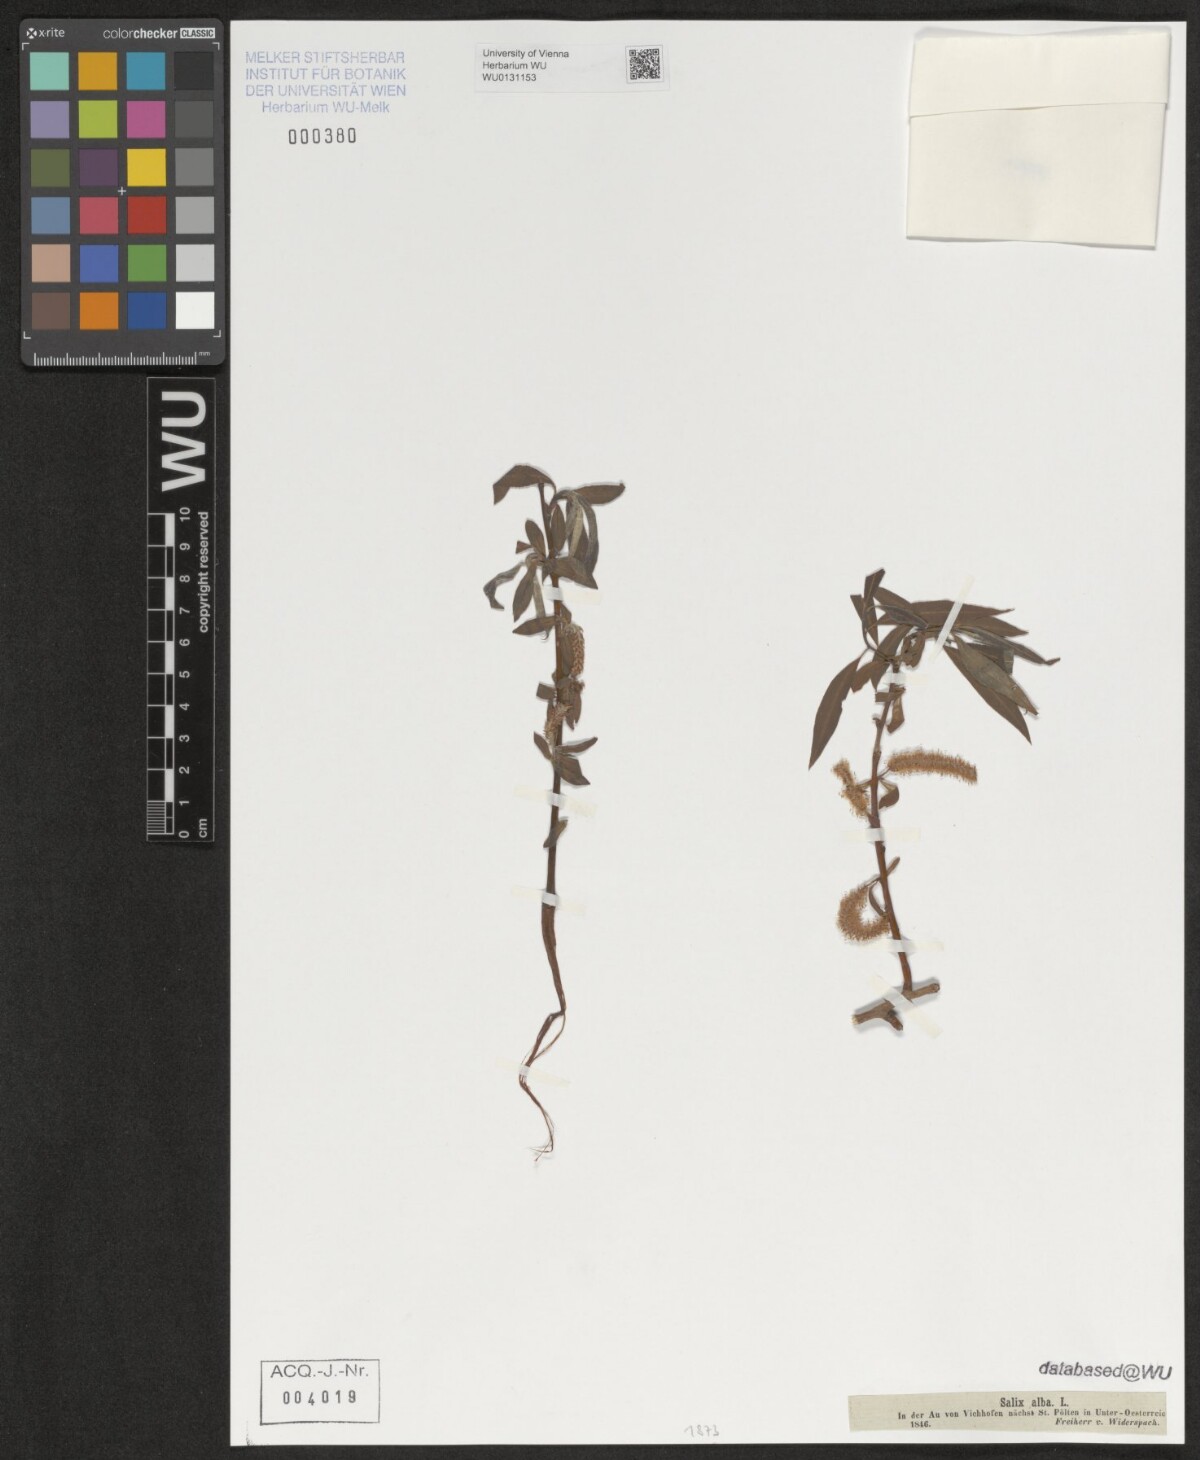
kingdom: Plantae
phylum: Tracheophyta
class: Magnoliopsida
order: Malpighiales
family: Salicaceae
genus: Salix
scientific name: Salix alba
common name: White willow
